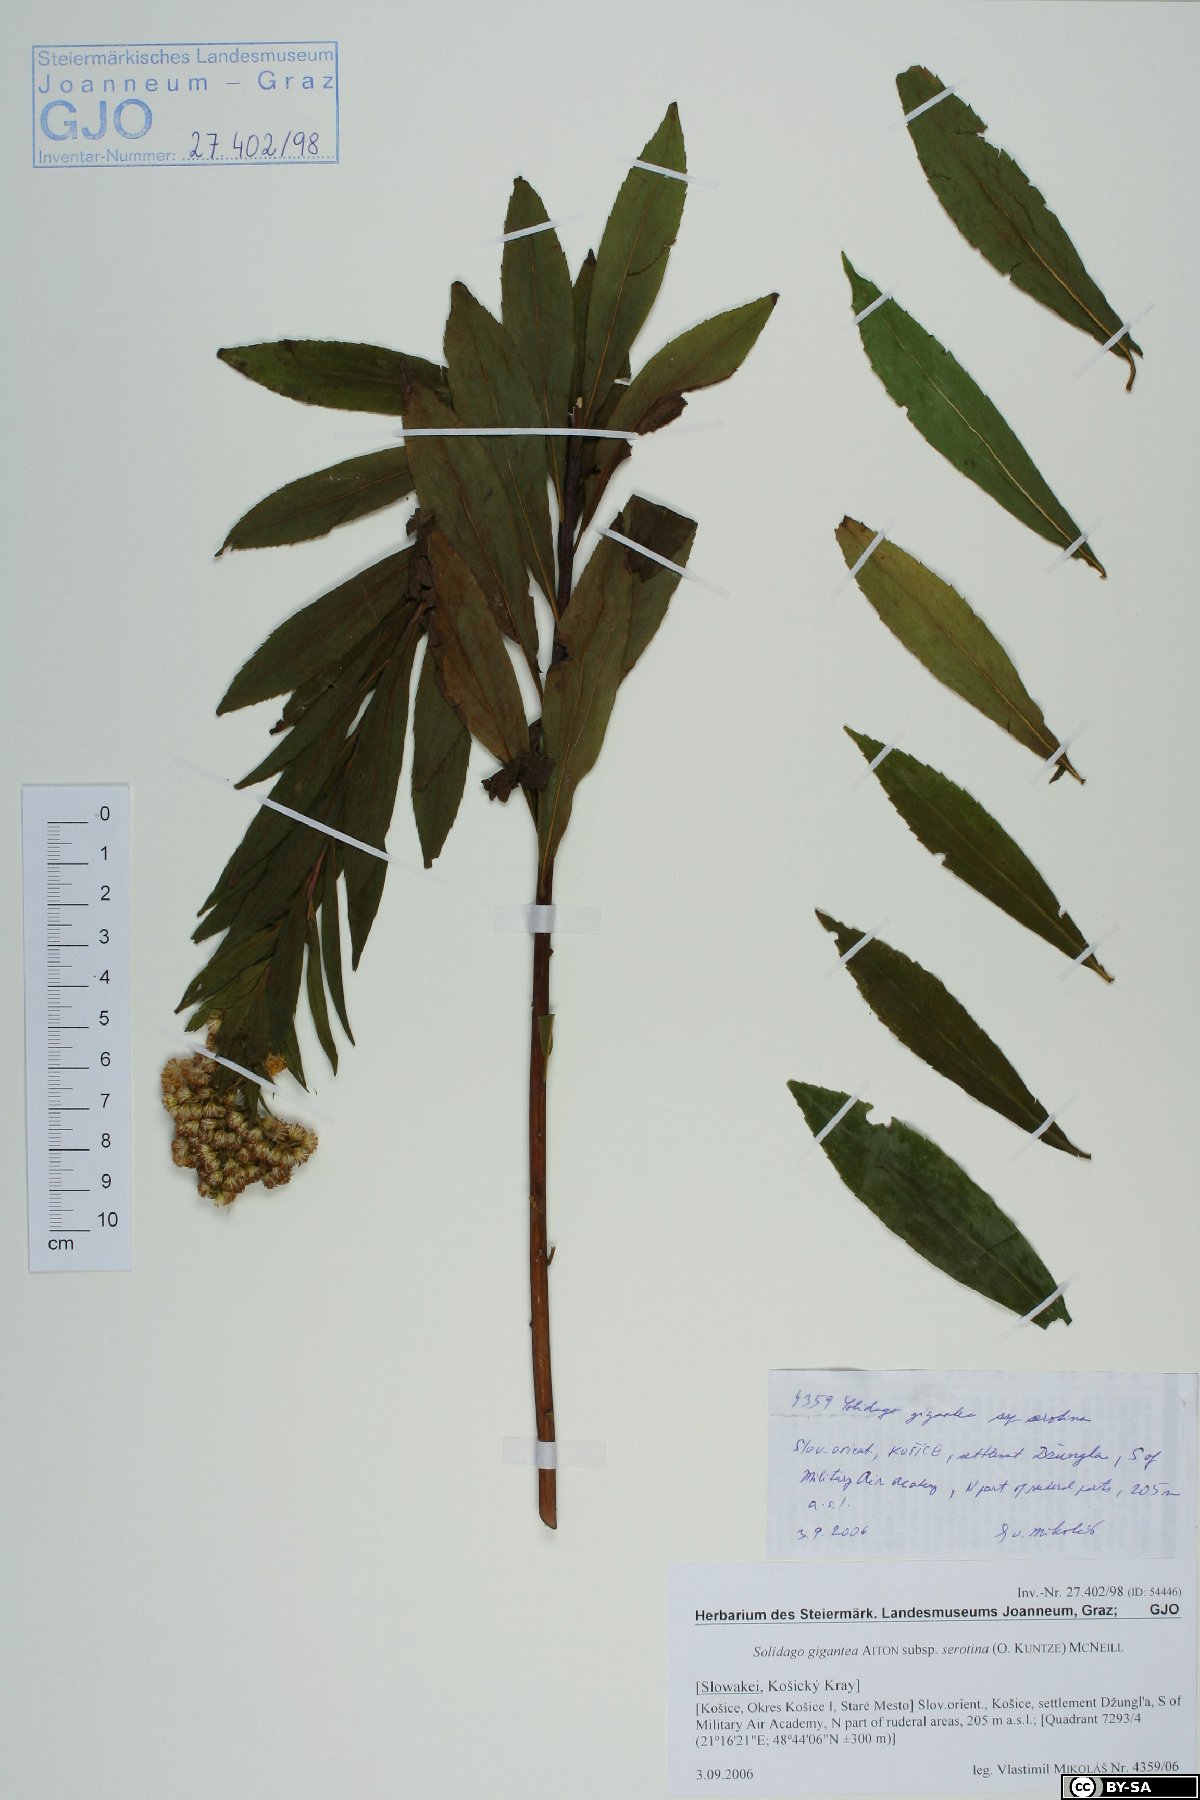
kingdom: Plantae
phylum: Tracheophyta
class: Magnoliopsida
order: Asterales
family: Asteraceae
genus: Solidago
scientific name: Solidago gigantea
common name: Giant goldenrod
